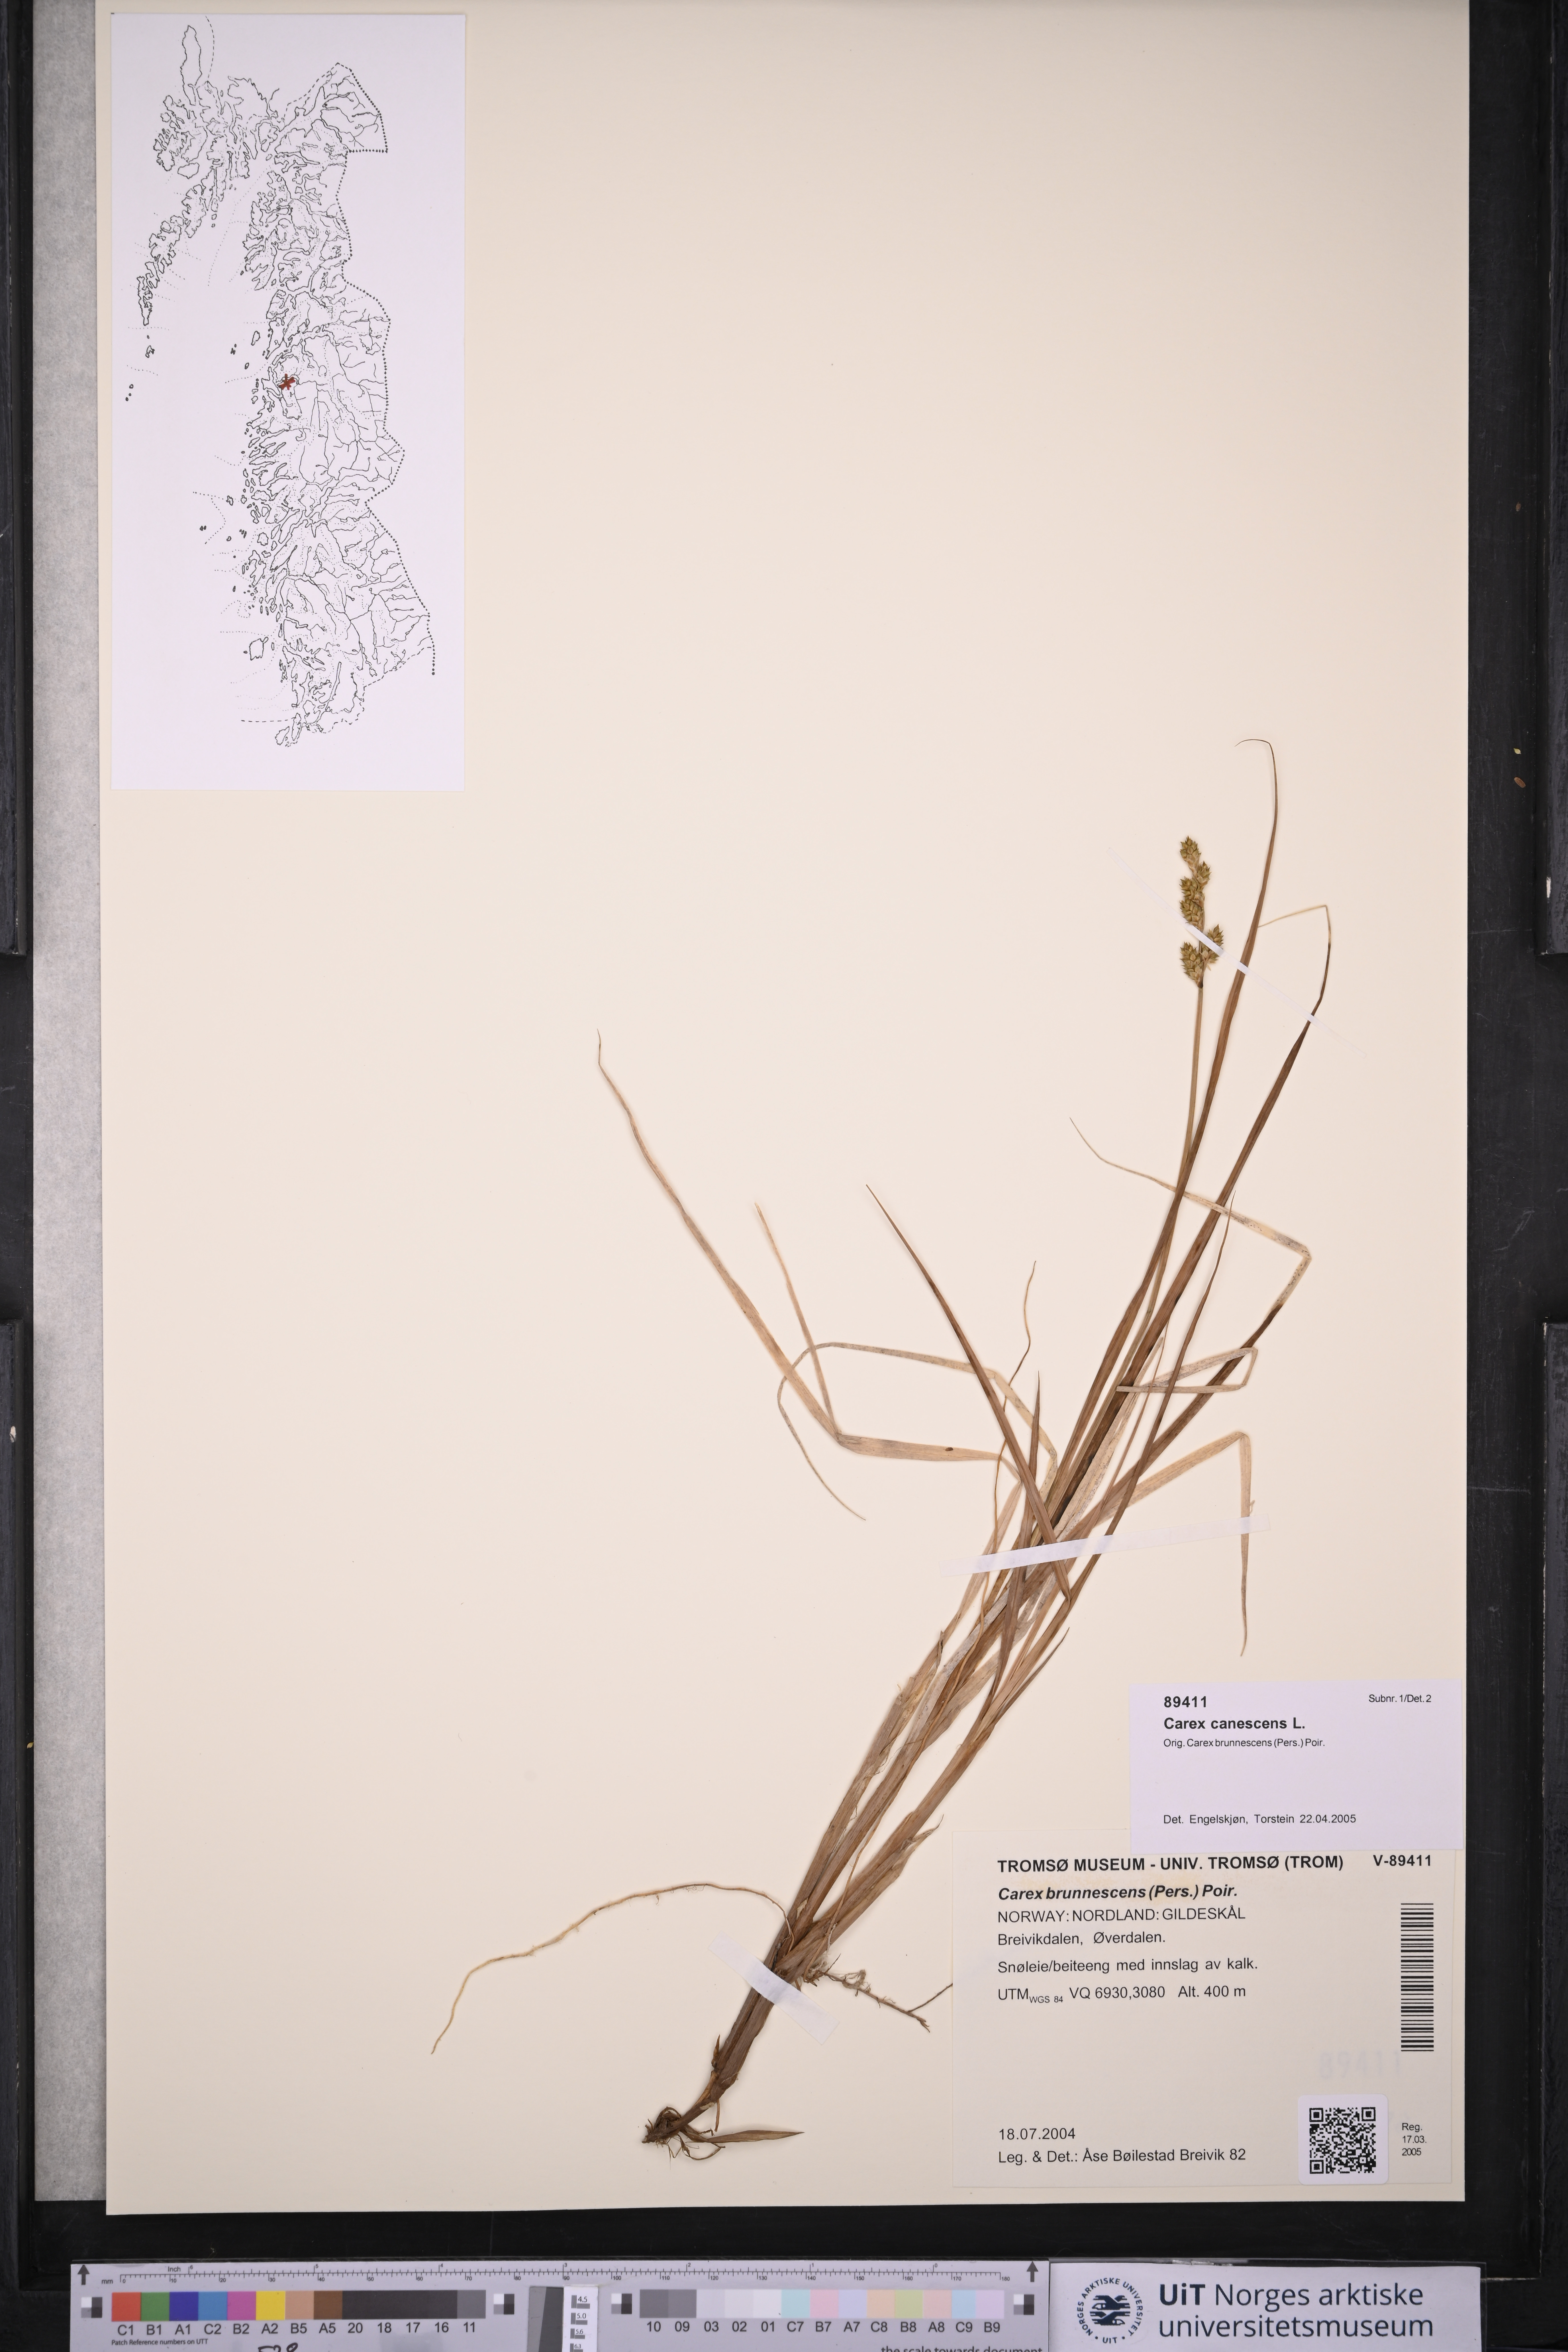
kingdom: Plantae
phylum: Tracheophyta
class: Liliopsida
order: Poales
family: Cyperaceae
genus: Carex
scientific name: Carex canescens
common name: White sedge
